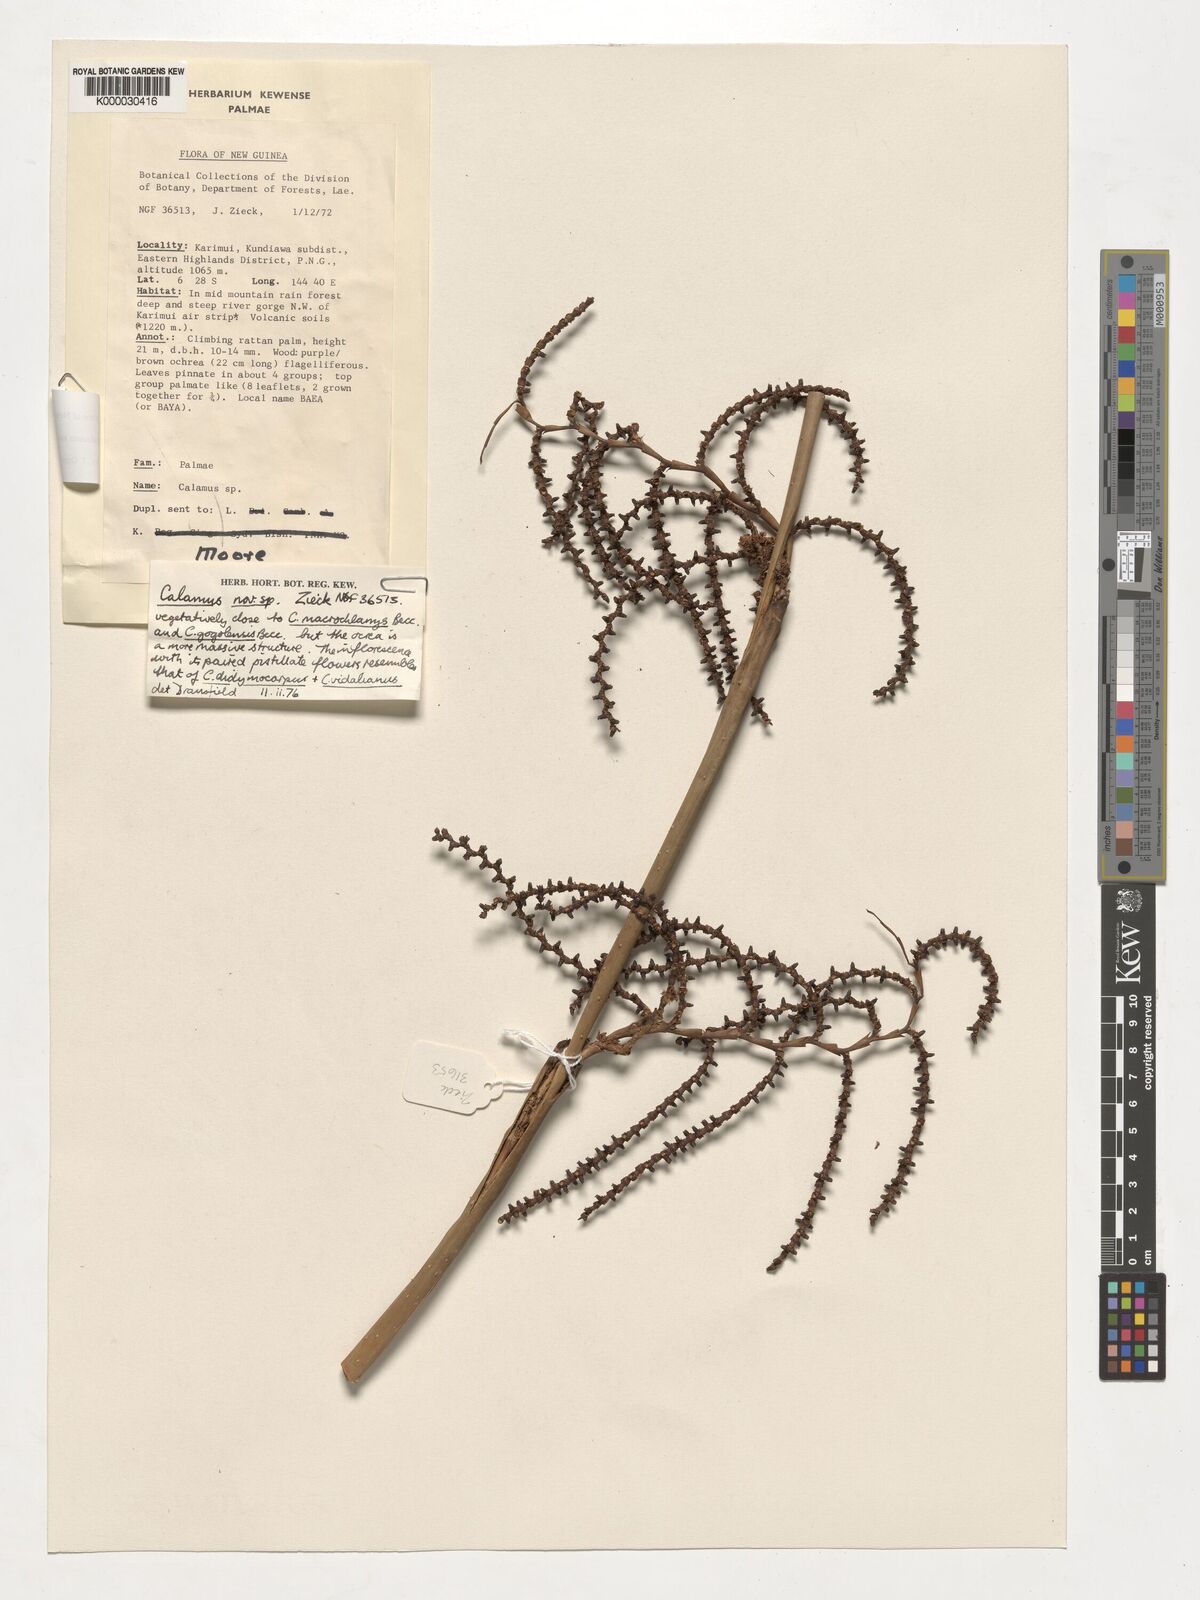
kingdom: Plantae
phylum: Tracheophyta
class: Liliopsida
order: Arecales
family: Arecaceae
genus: Calamus
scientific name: Calamus macrochlamys
